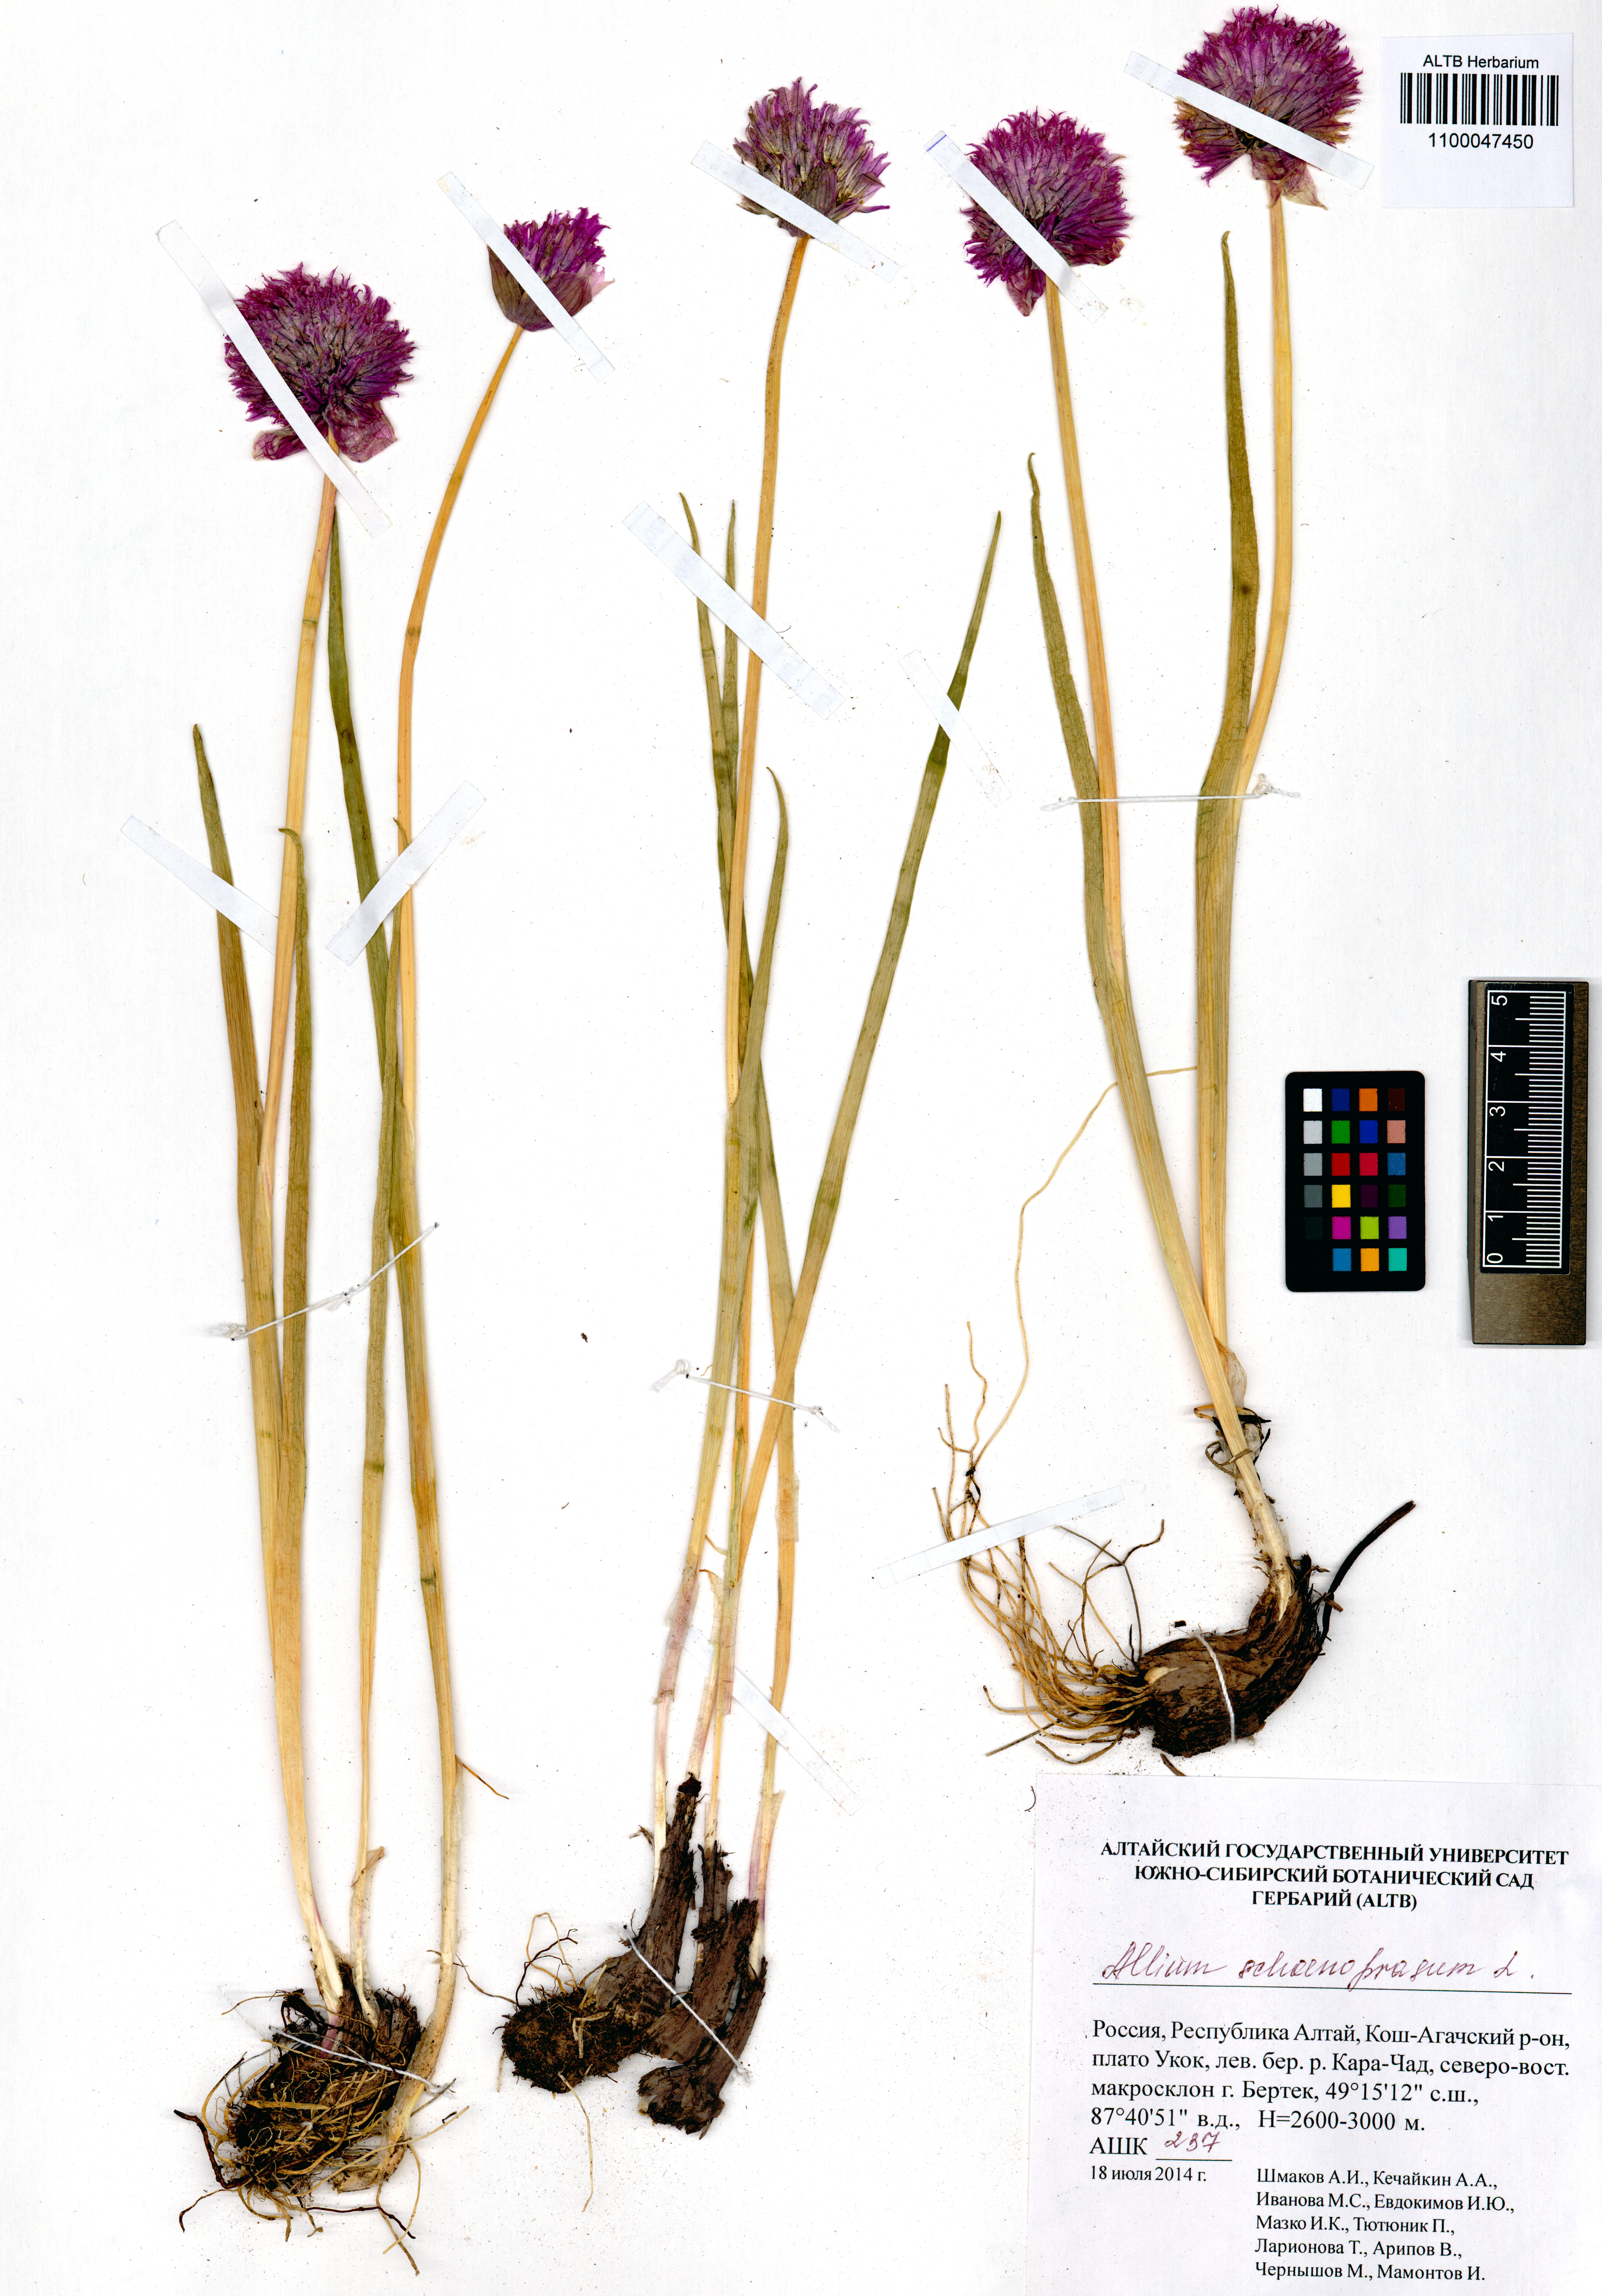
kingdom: Plantae
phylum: Tracheophyta
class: Liliopsida
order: Asparagales
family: Amaryllidaceae
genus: Allium
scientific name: Allium schoenoprasum
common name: Chives
